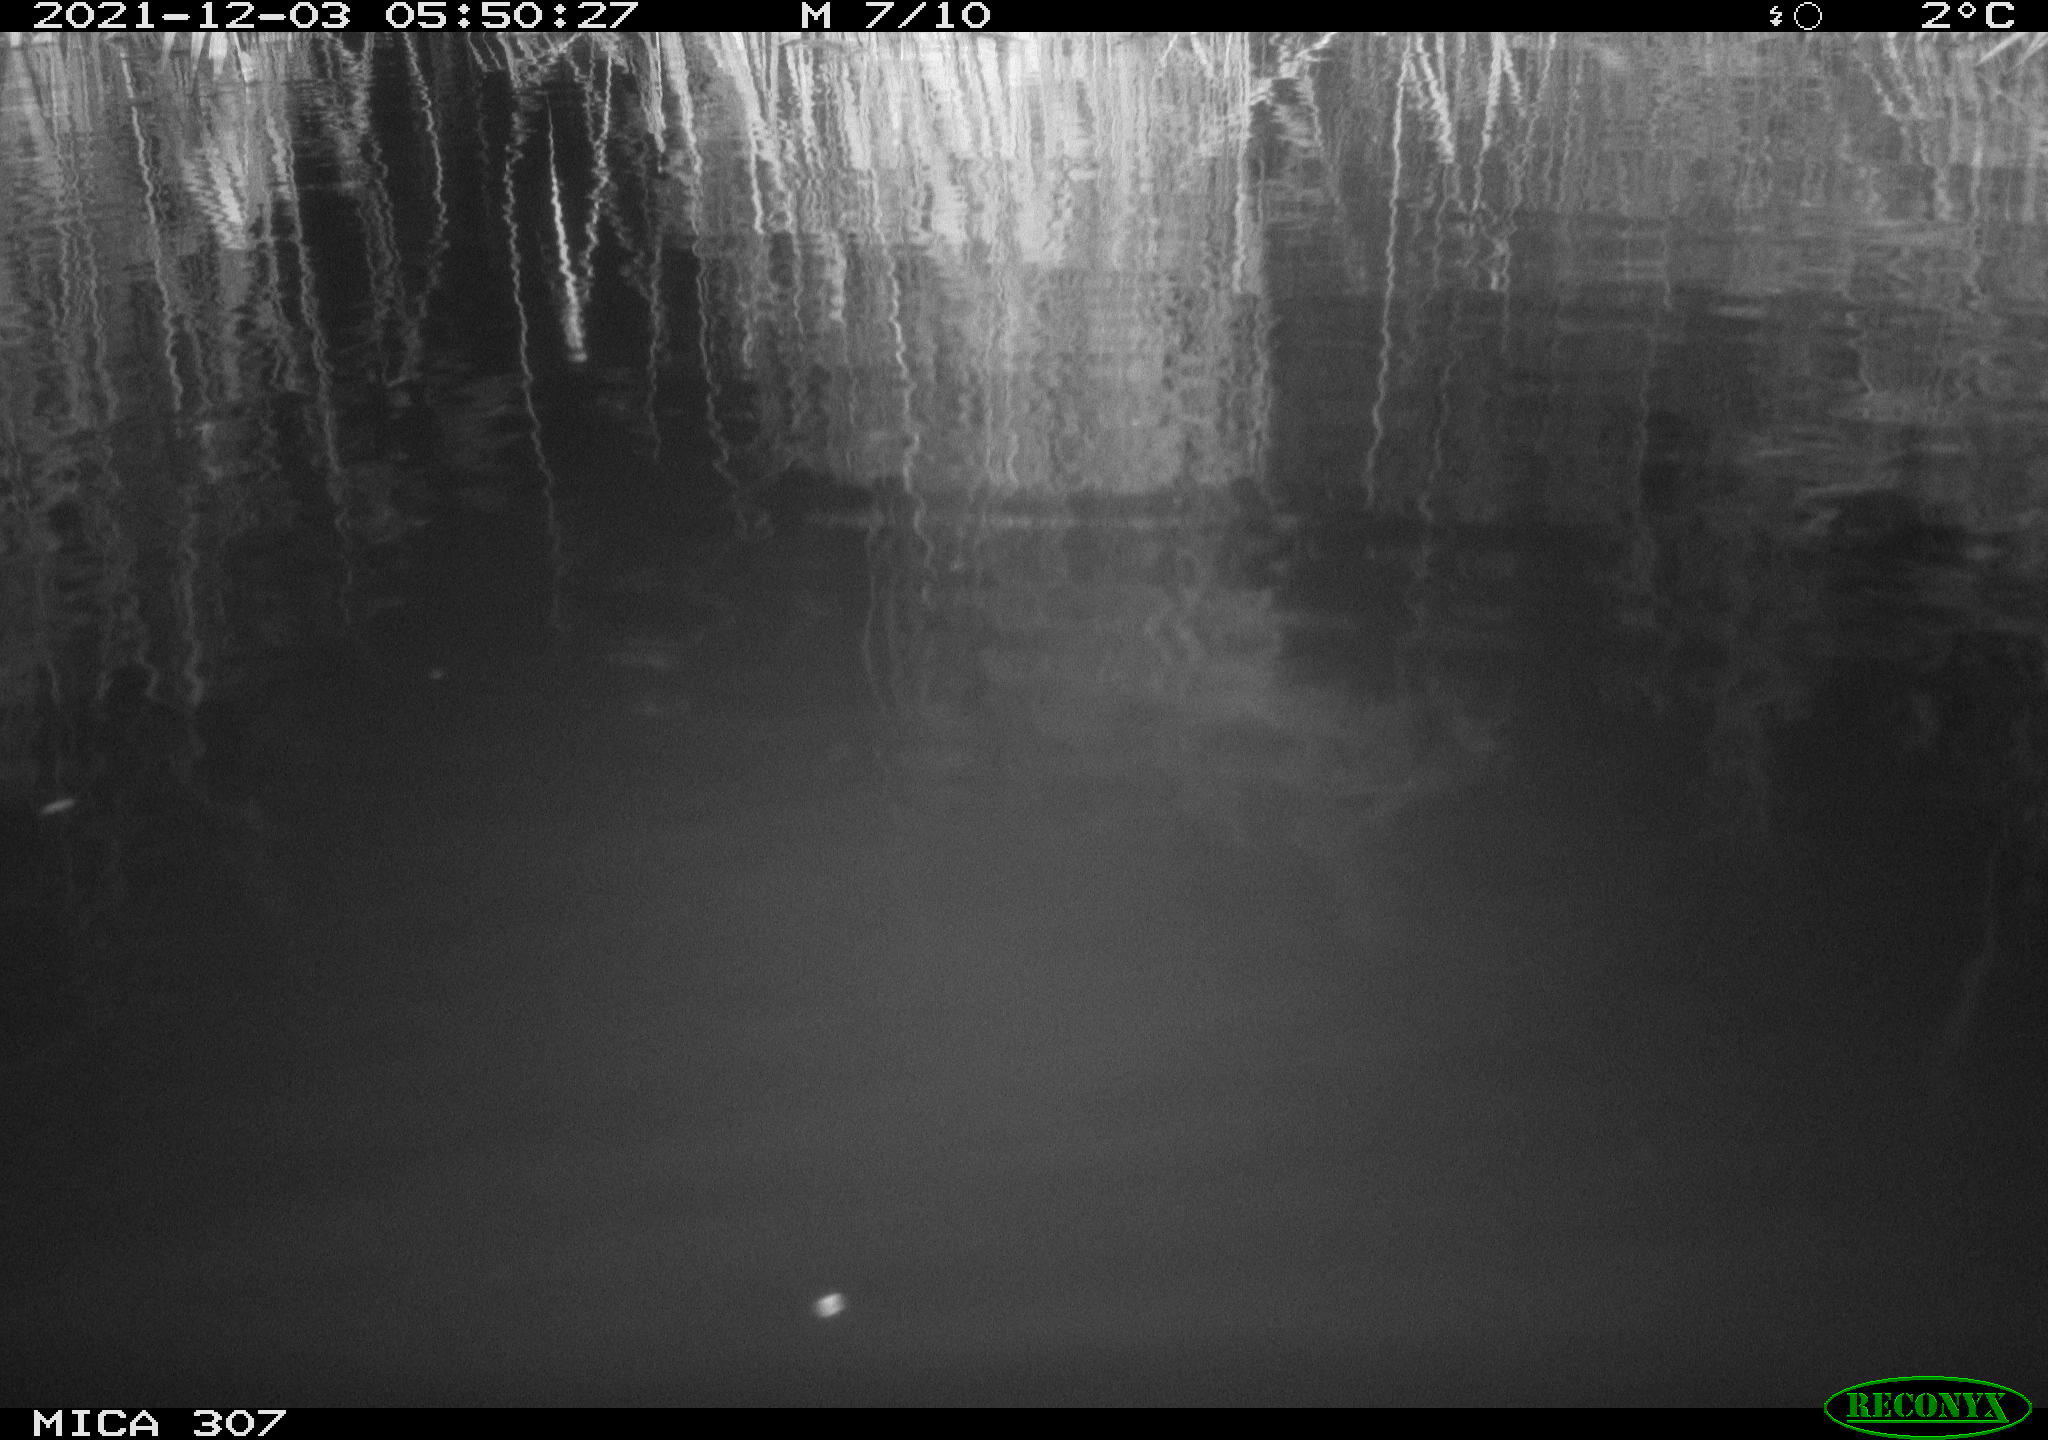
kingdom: Animalia
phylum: Chordata
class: Mammalia
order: Rodentia
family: Cricetidae
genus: Ondatra
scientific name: Ondatra zibethicus
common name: Muskrat
